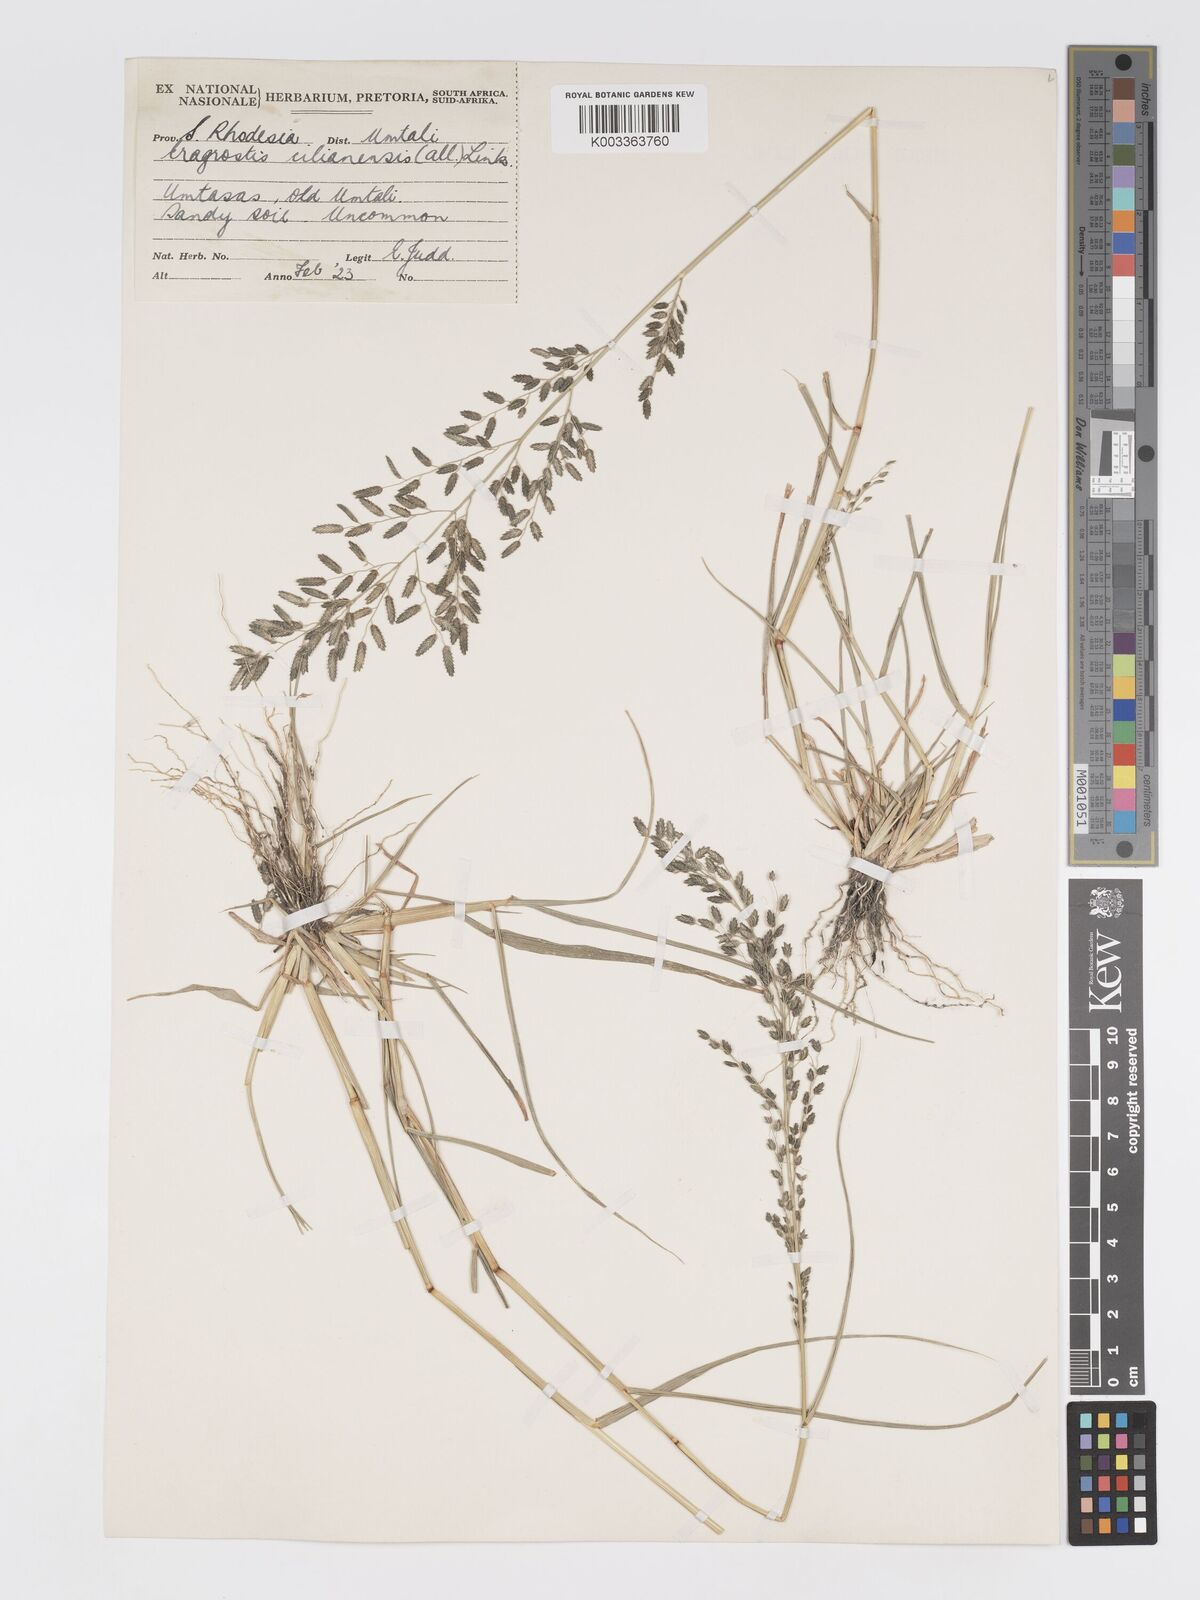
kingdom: Plantae
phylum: Tracheophyta
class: Liliopsida
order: Poales
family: Poaceae
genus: Eragrostis
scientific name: Eragrostis cilianensis
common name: Stinkgrass
